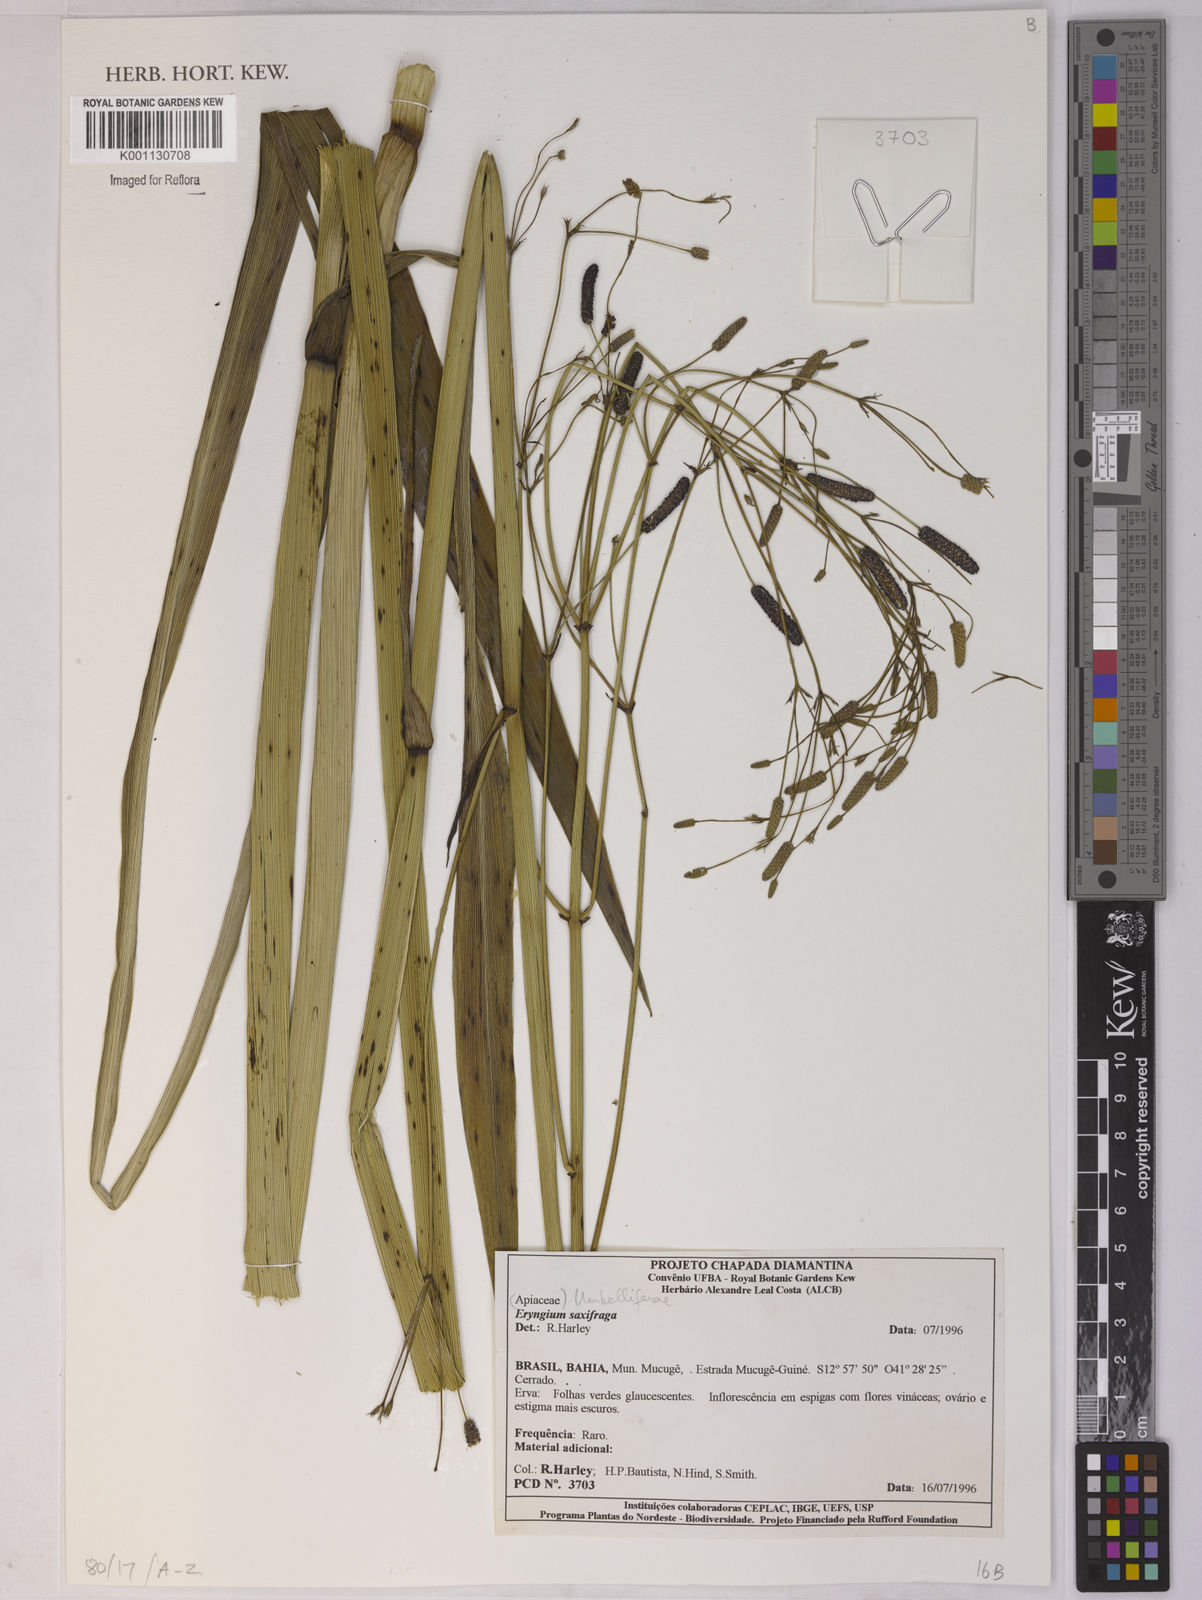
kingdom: Plantae
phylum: Tracheophyta
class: Magnoliopsida
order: Apiales
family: Apiaceae
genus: Eryngium
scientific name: Eryngium
